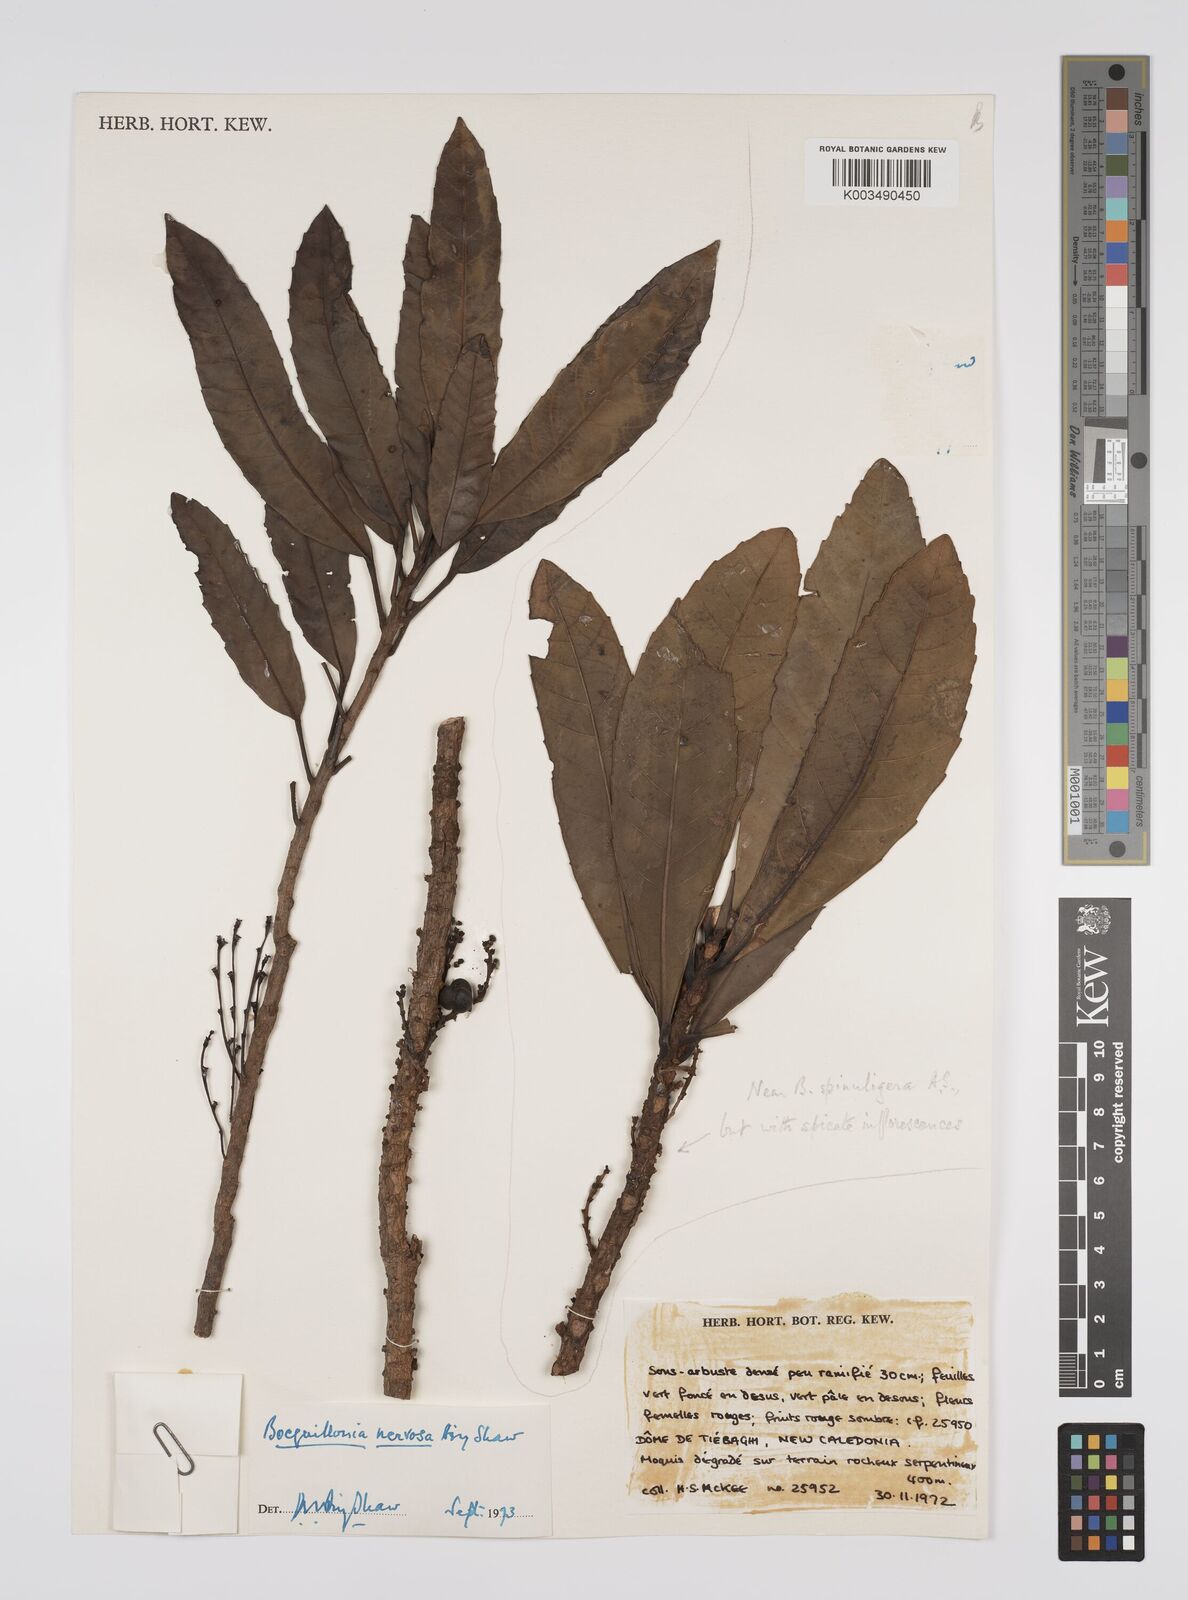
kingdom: Plantae
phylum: Tracheophyta
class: Magnoliopsida
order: Malpighiales
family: Euphorbiaceae
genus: Bocquillonia
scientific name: Bocquillonia nervosa
